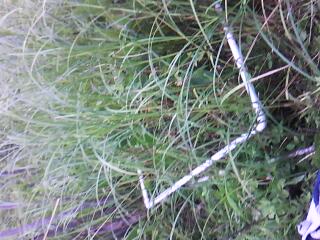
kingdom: Plantae
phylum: Tracheophyta
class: Magnoliopsida
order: Fabales
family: Fabaceae
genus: Apios
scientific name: Apios americana
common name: American potato-bean
